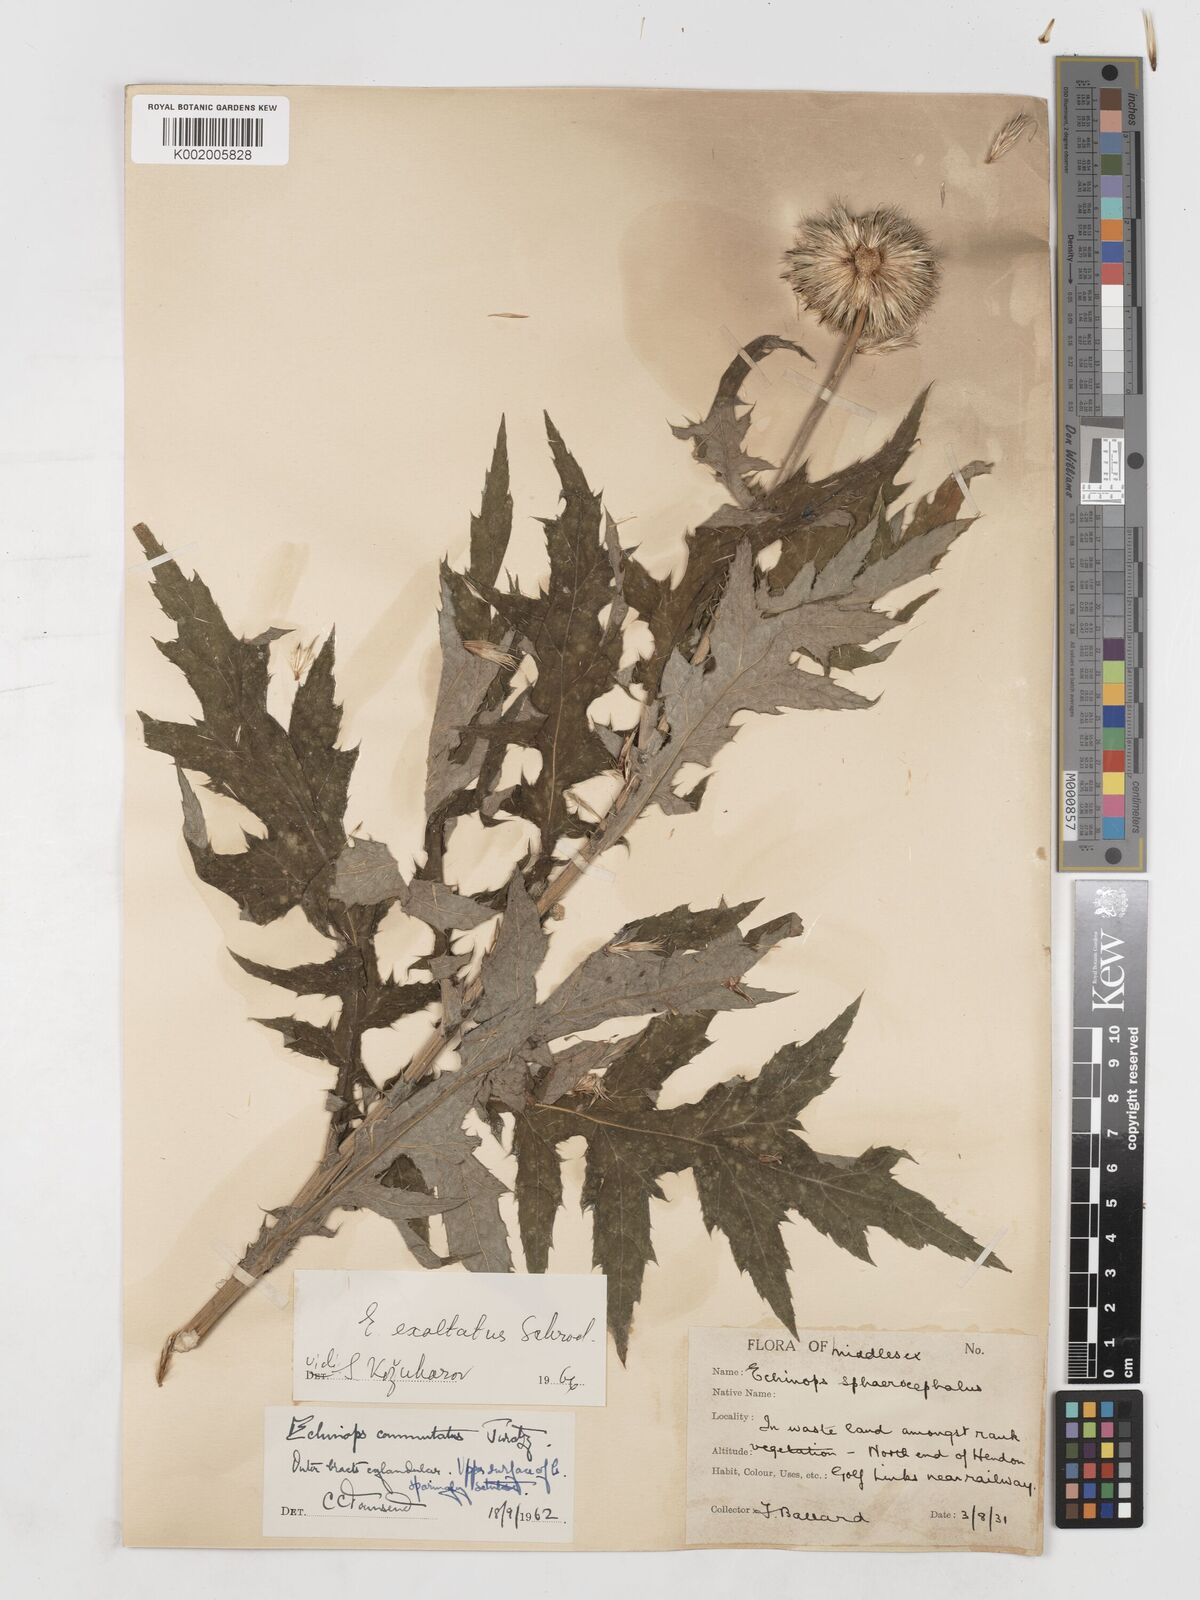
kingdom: Plantae
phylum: Tracheophyta
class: Magnoliopsida
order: Asterales
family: Asteraceae
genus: Echinops
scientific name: Echinops sphaerocephalus
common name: Glandular globe-thistle
